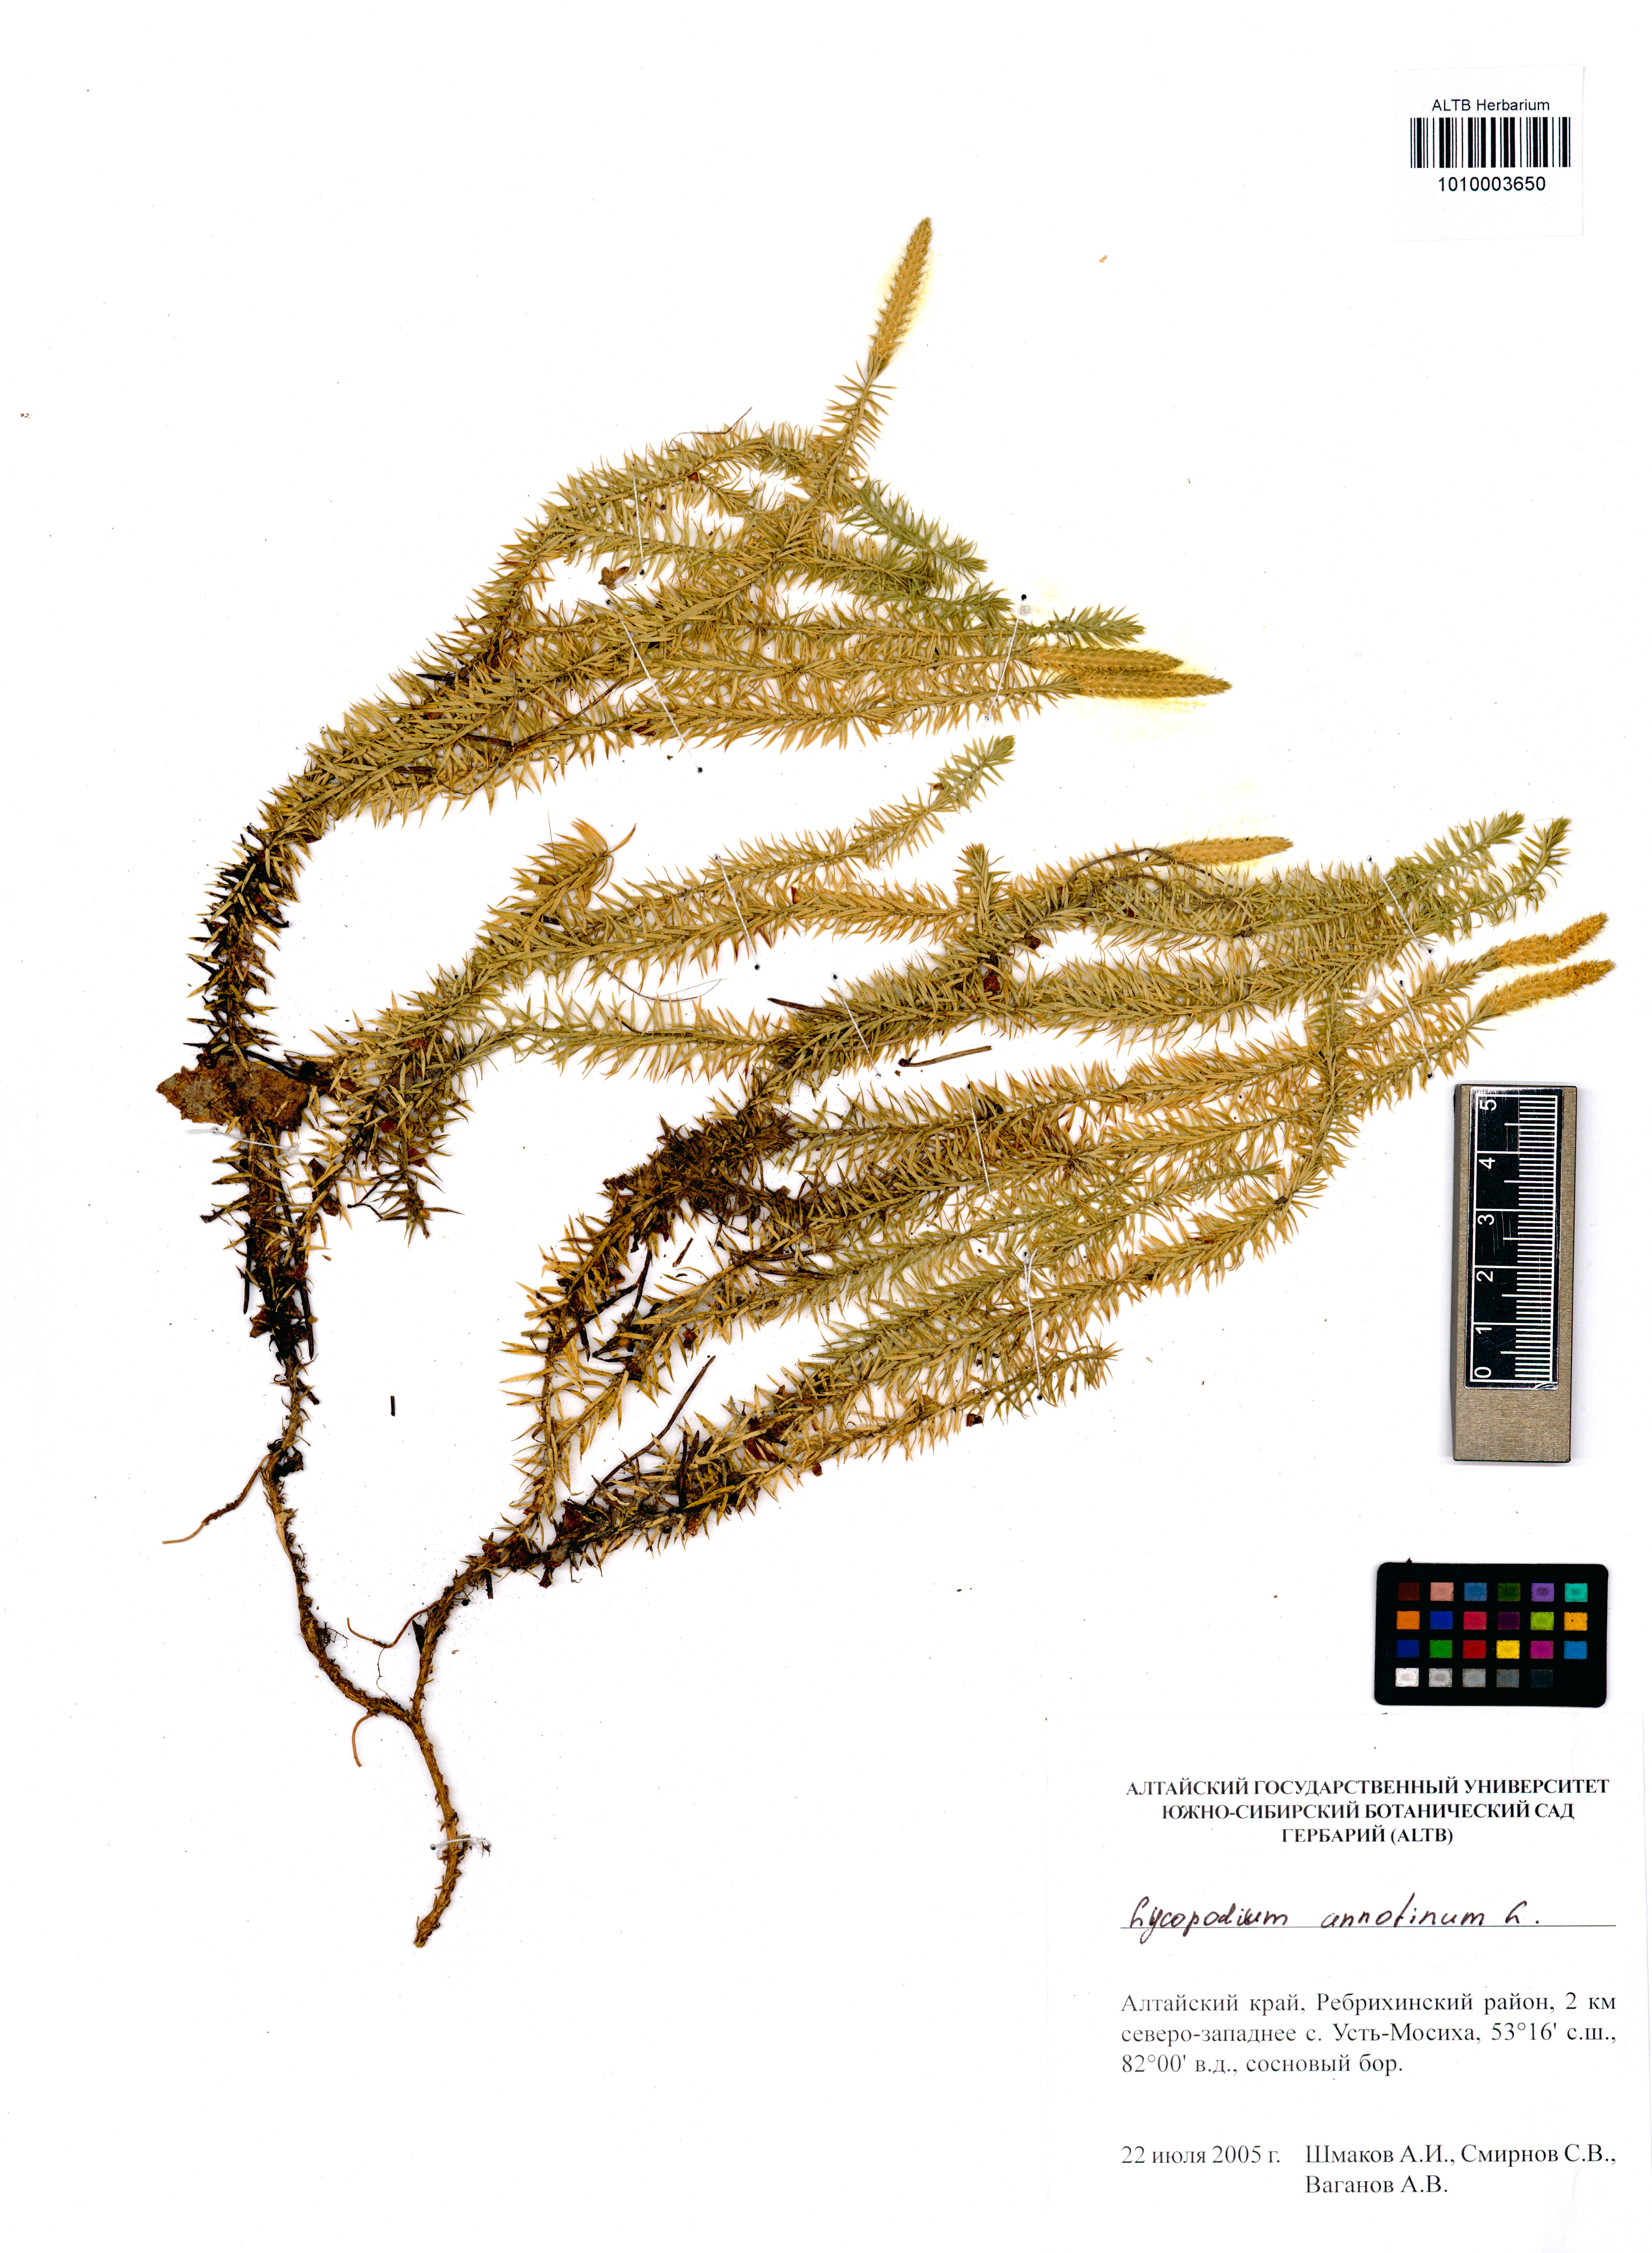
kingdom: Plantae
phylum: Tracheophyta
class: Lycopodiopsida
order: Lycopodiales
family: Lycopodiaceae
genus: Spinulum
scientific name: Spinulum annotinum
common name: Interrupted club-moss
